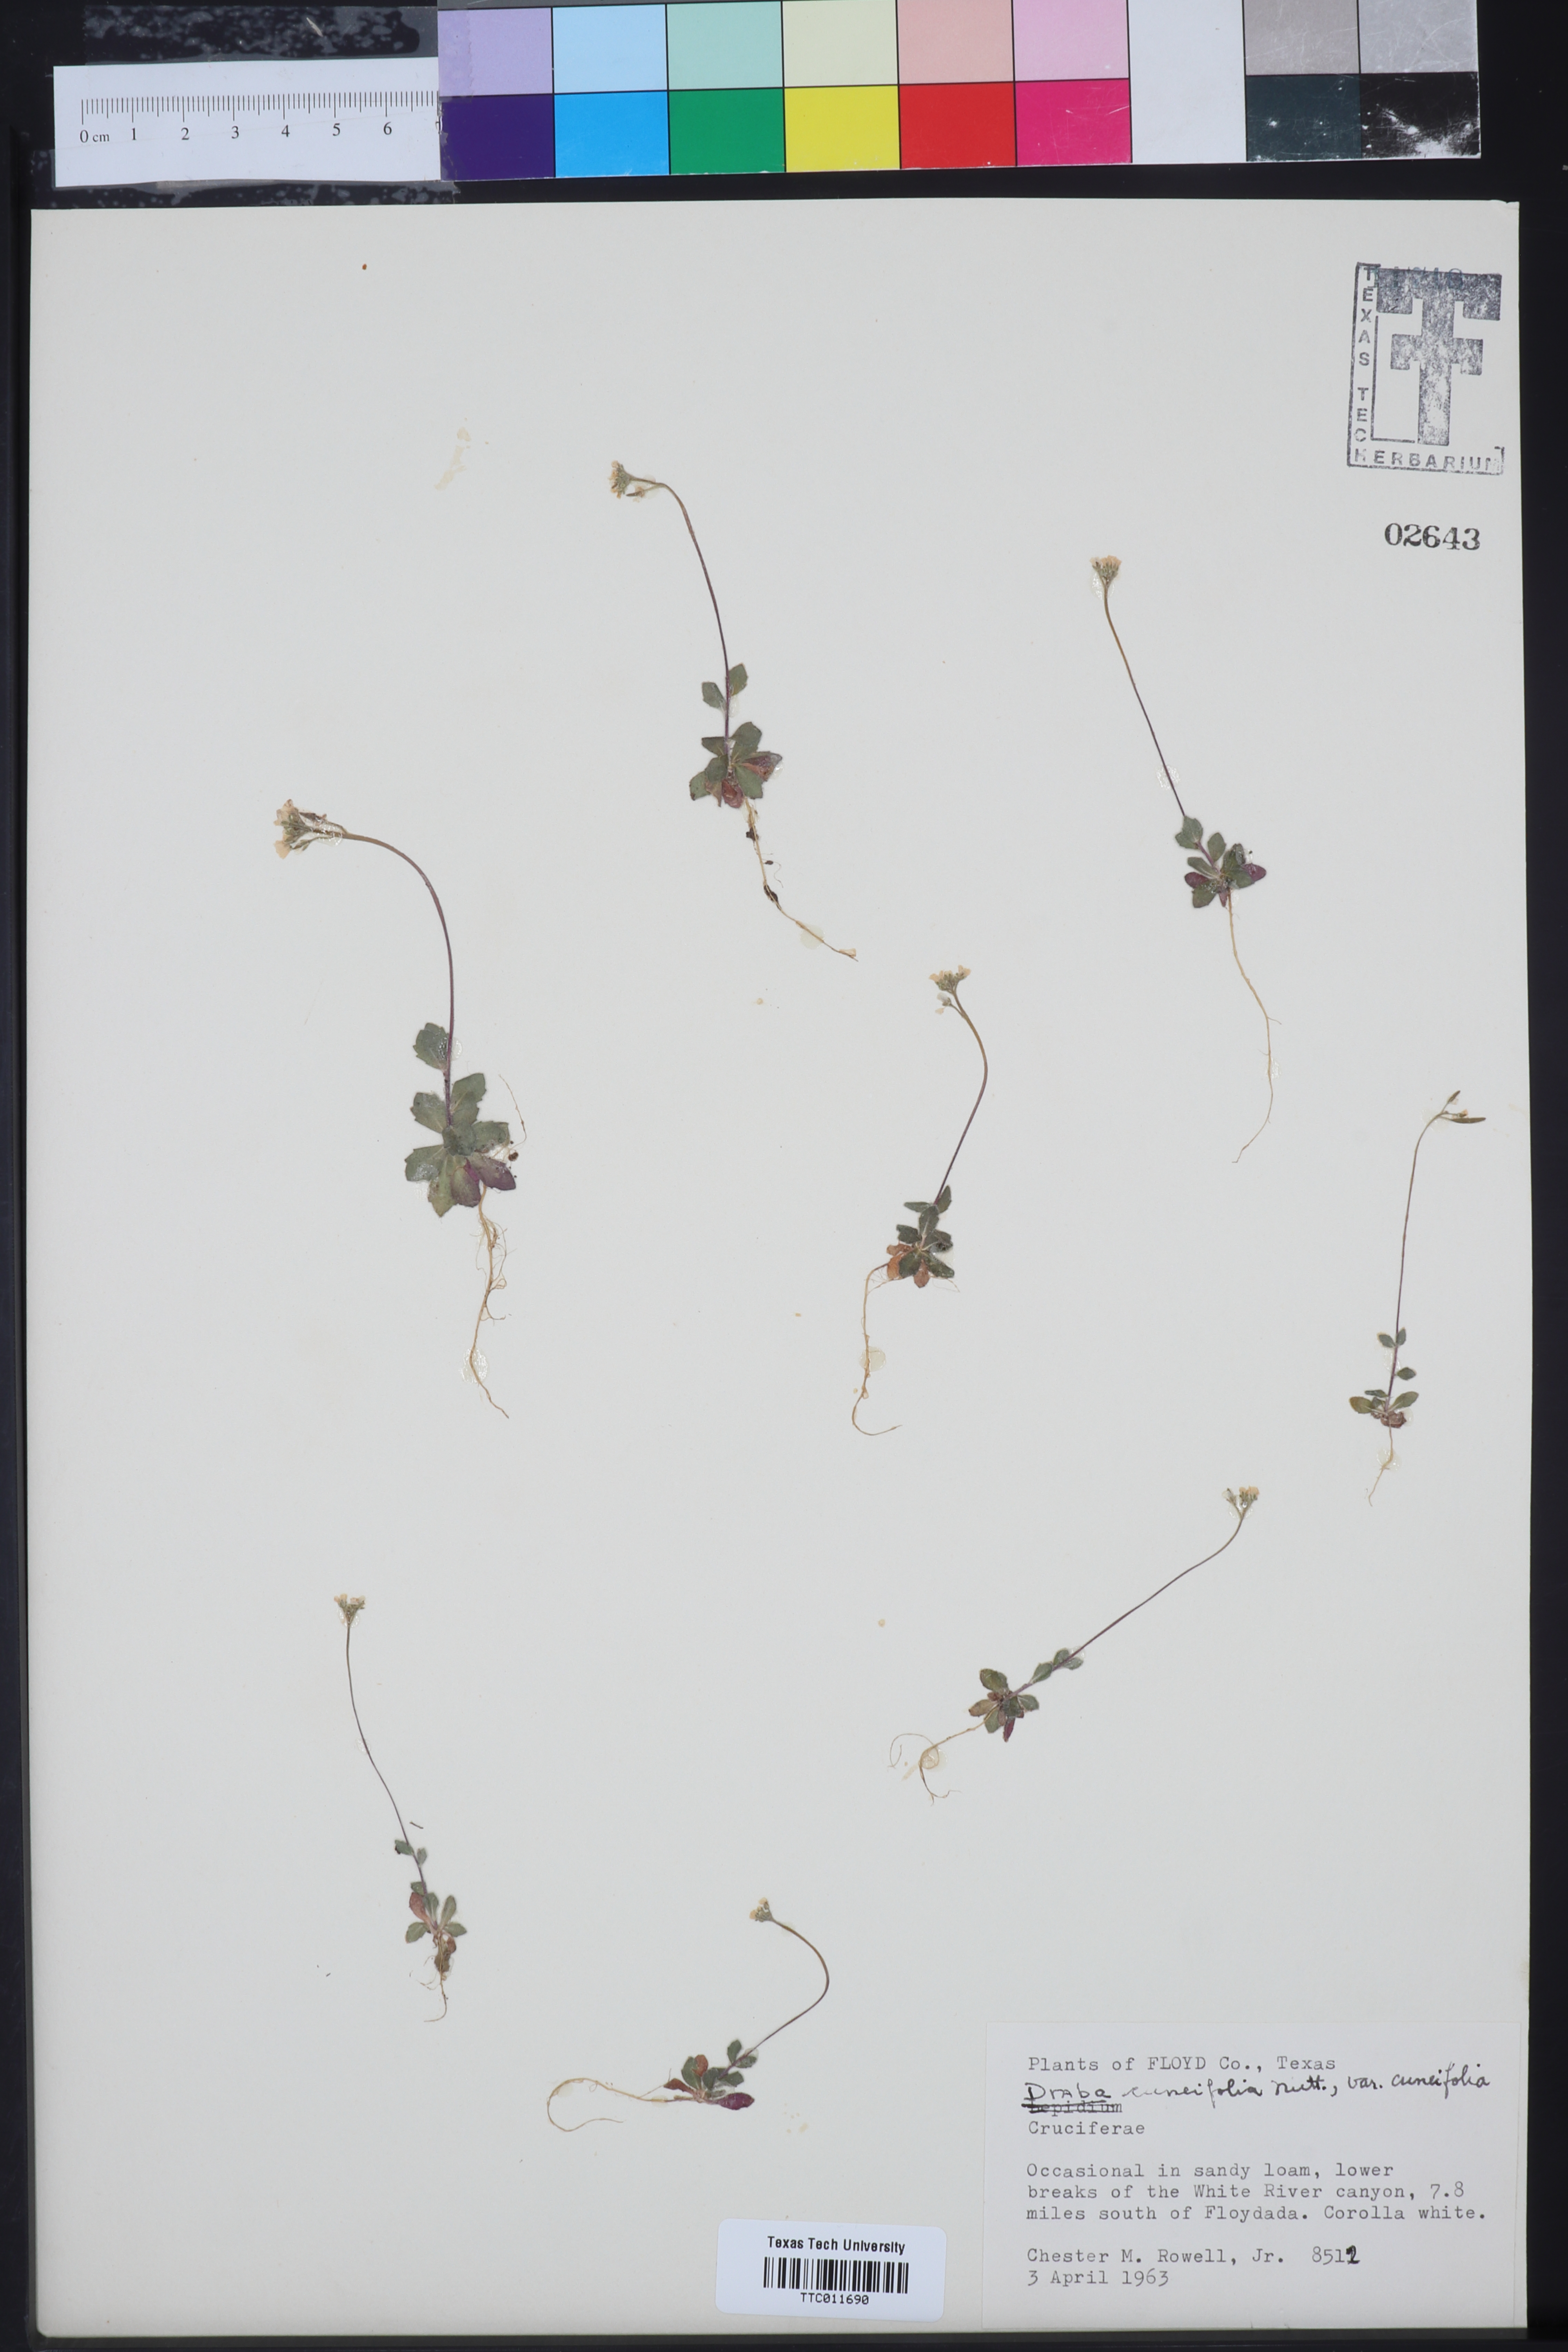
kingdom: Plantae
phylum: Tracheophyta
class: Magnoliopsida
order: Brassicales
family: Brassicaceae
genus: Tomostima
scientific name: Tomostima cuneifolia
